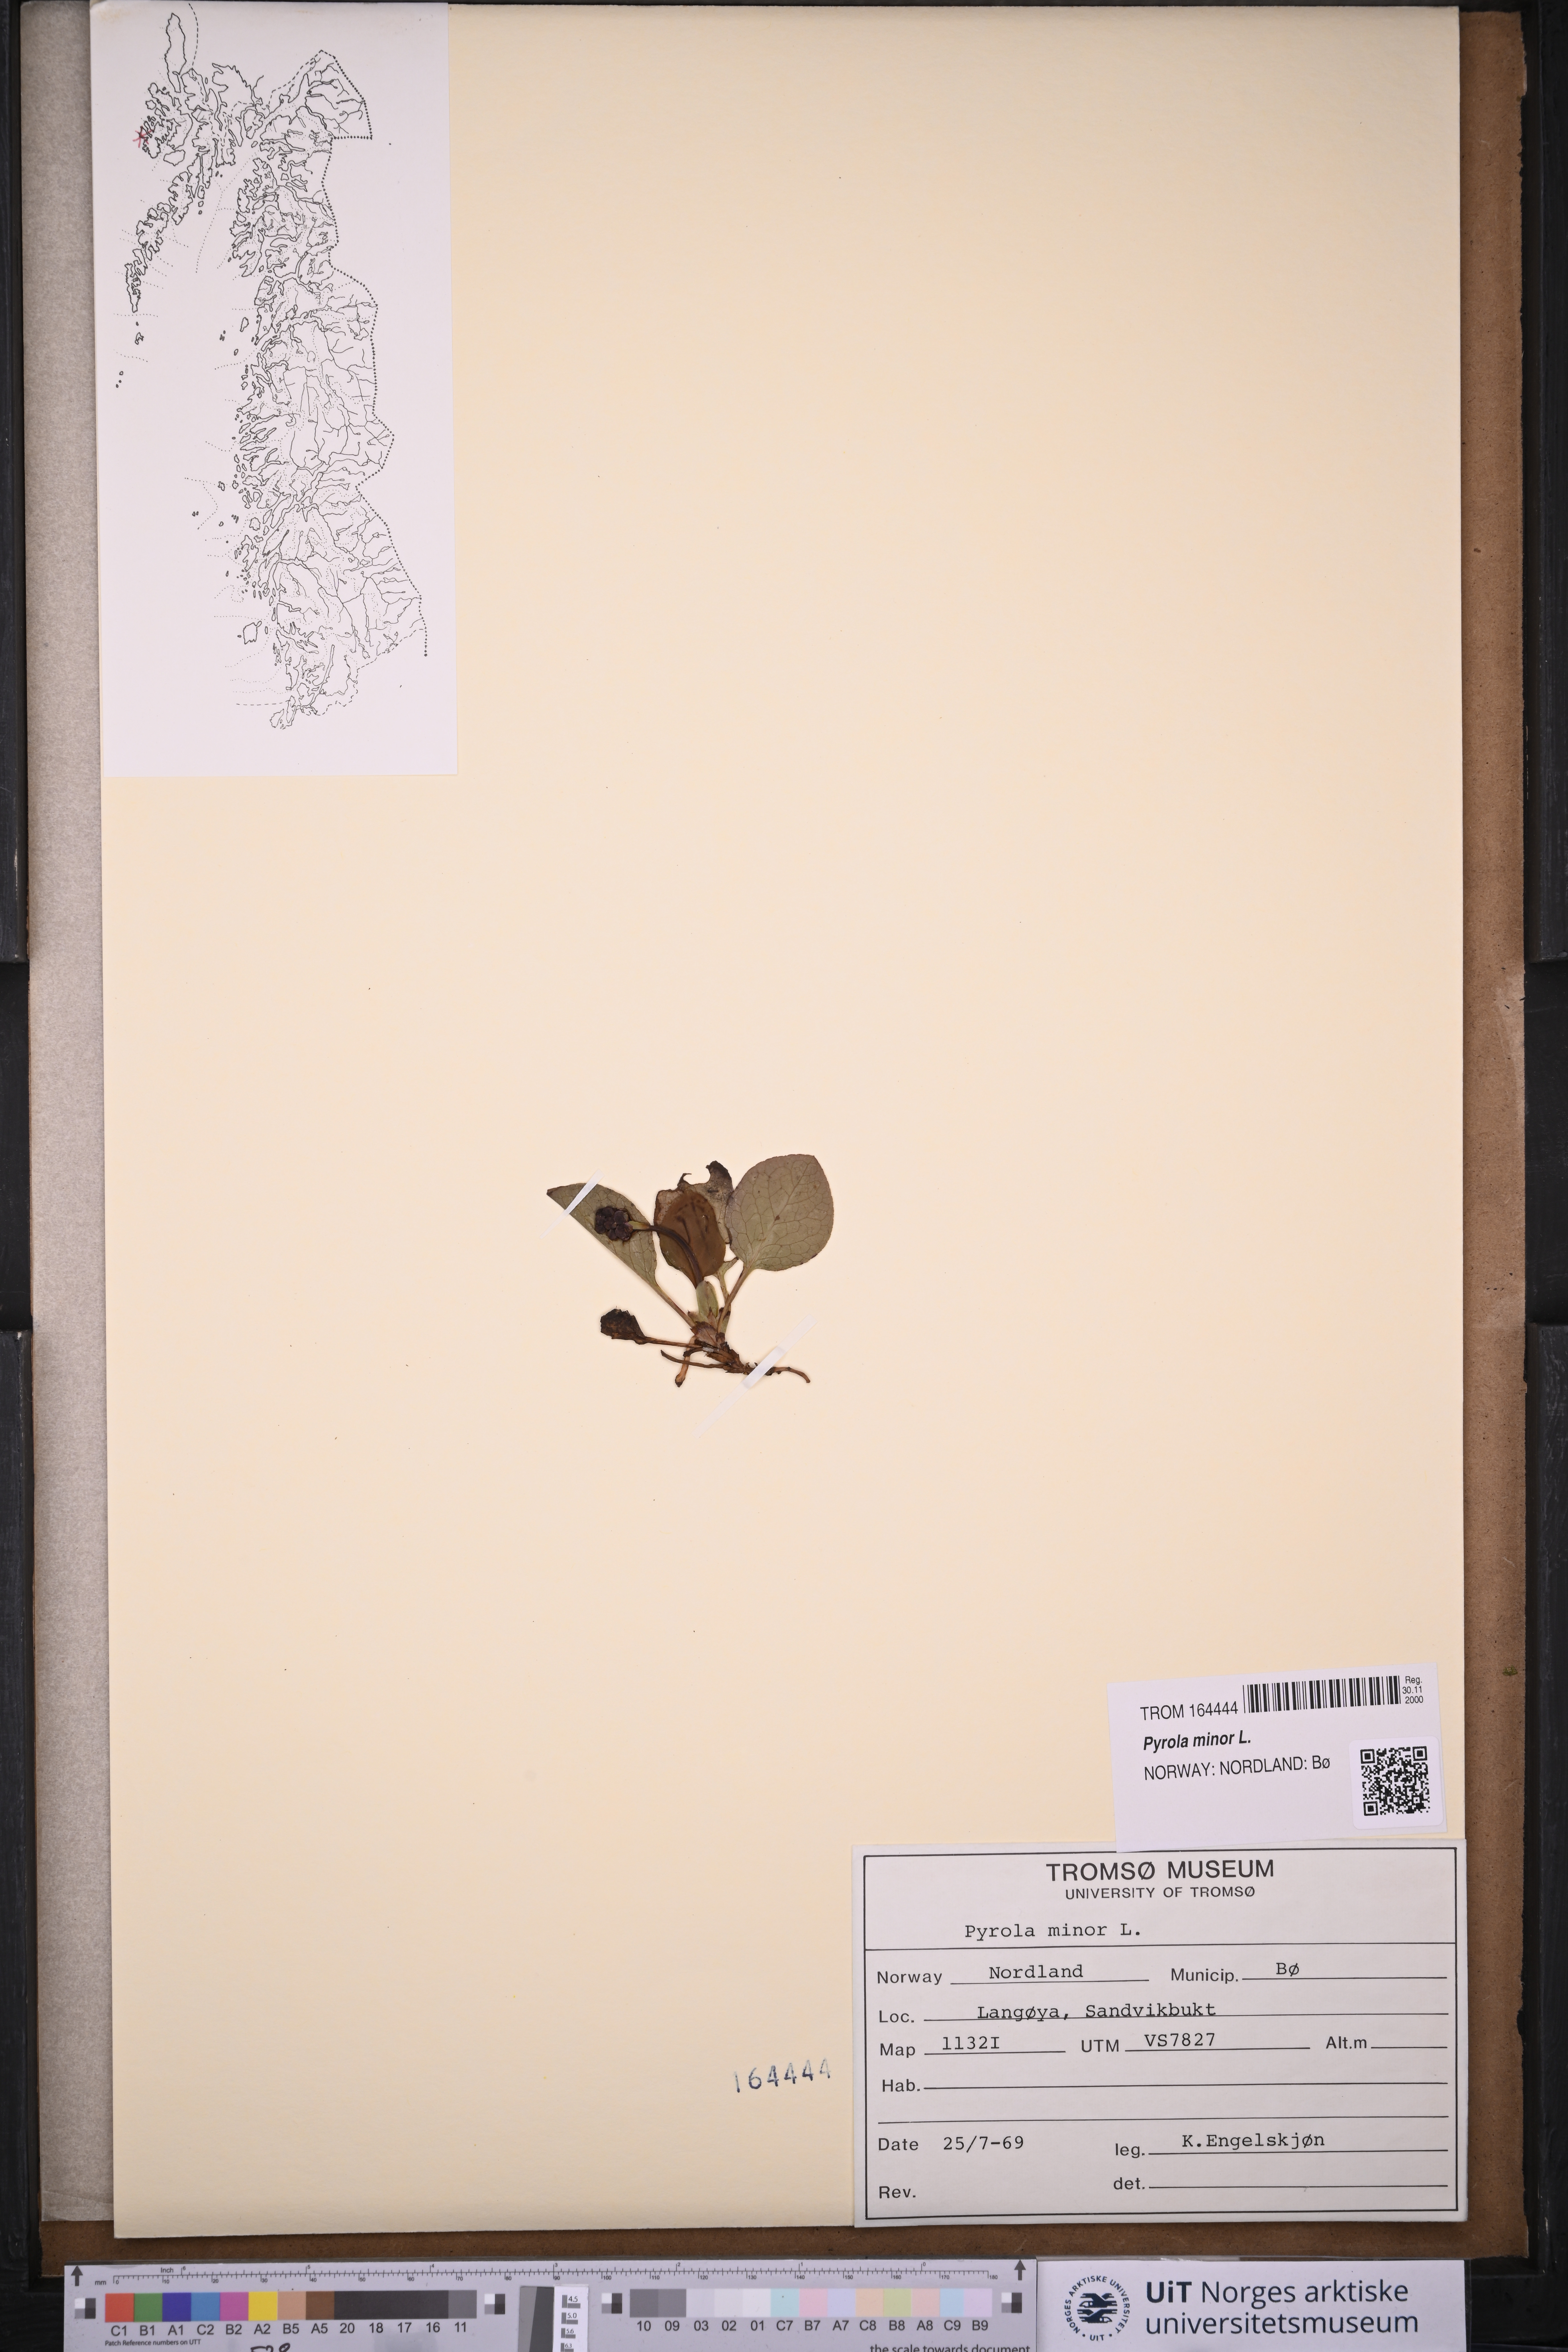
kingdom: Plantae
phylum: Tracheophyta
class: Magnoliopsida
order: Ericales
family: Ericaceae
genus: Pyrola
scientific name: Pyrola minor
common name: Common wintergreen
